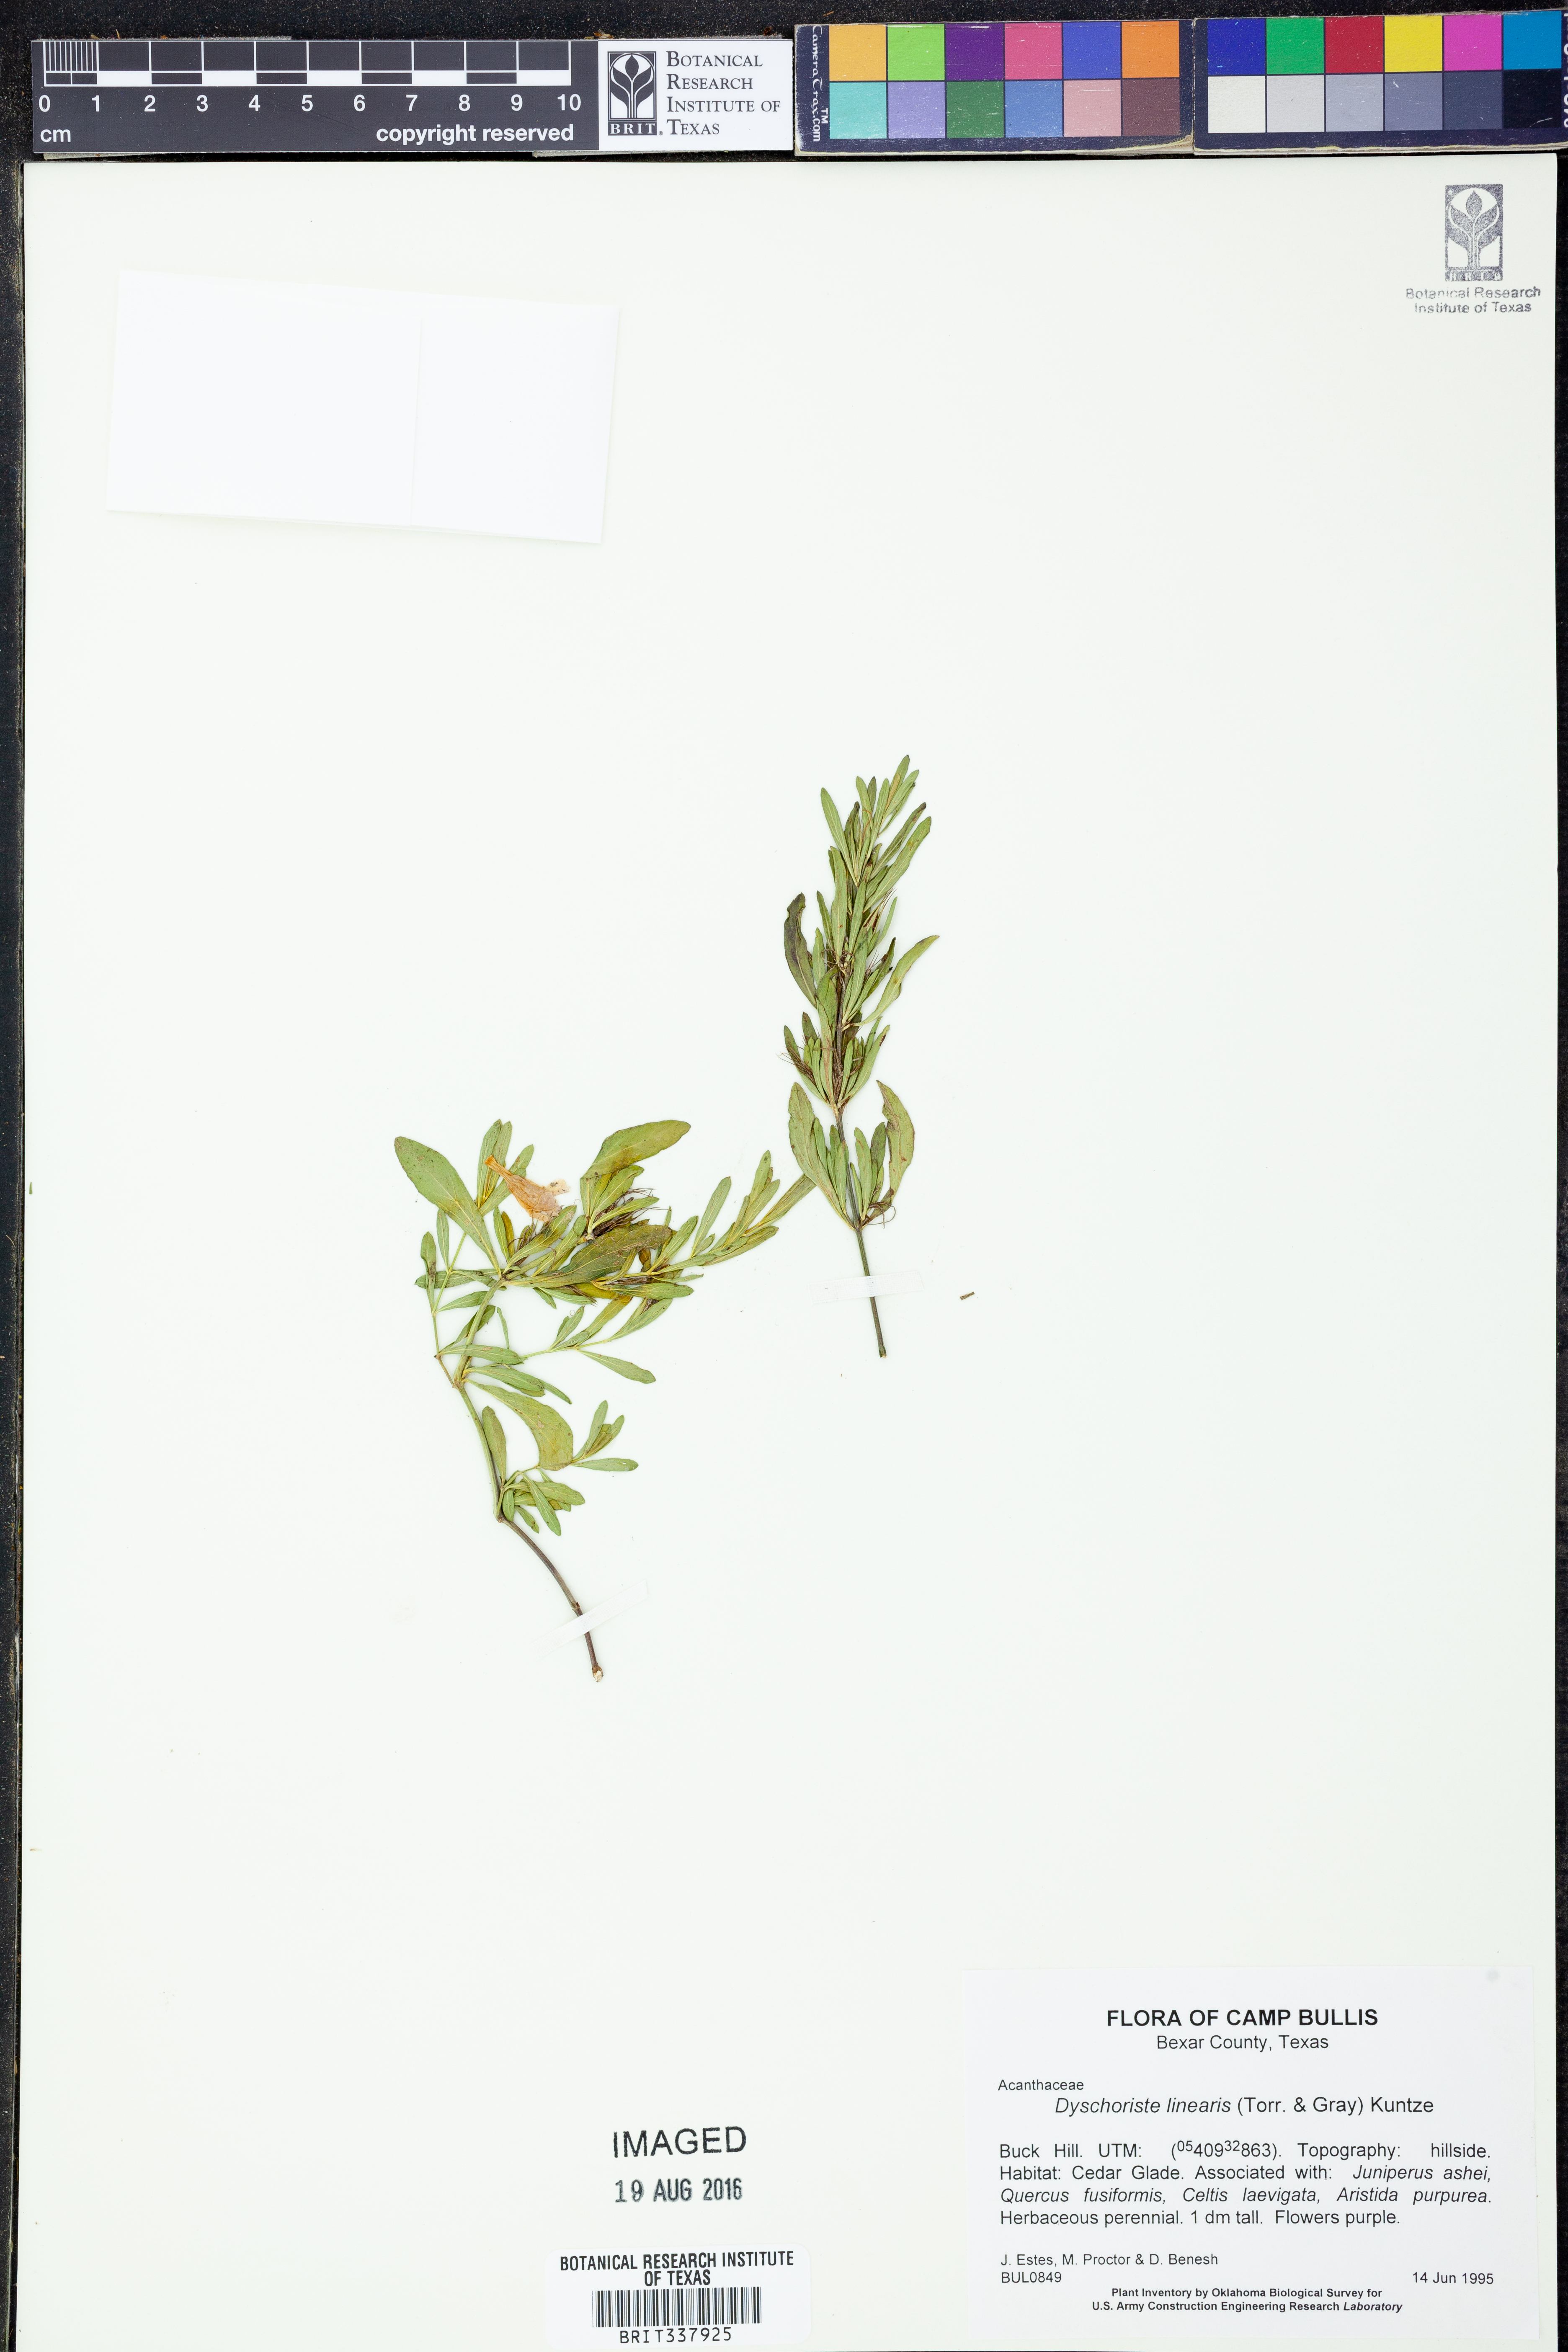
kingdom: Plantae
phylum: Tracheophyta
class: Magnoliopsida
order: Lamiales
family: Acanthaceae
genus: Dyschoriste
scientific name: Dyschoriste linearis
